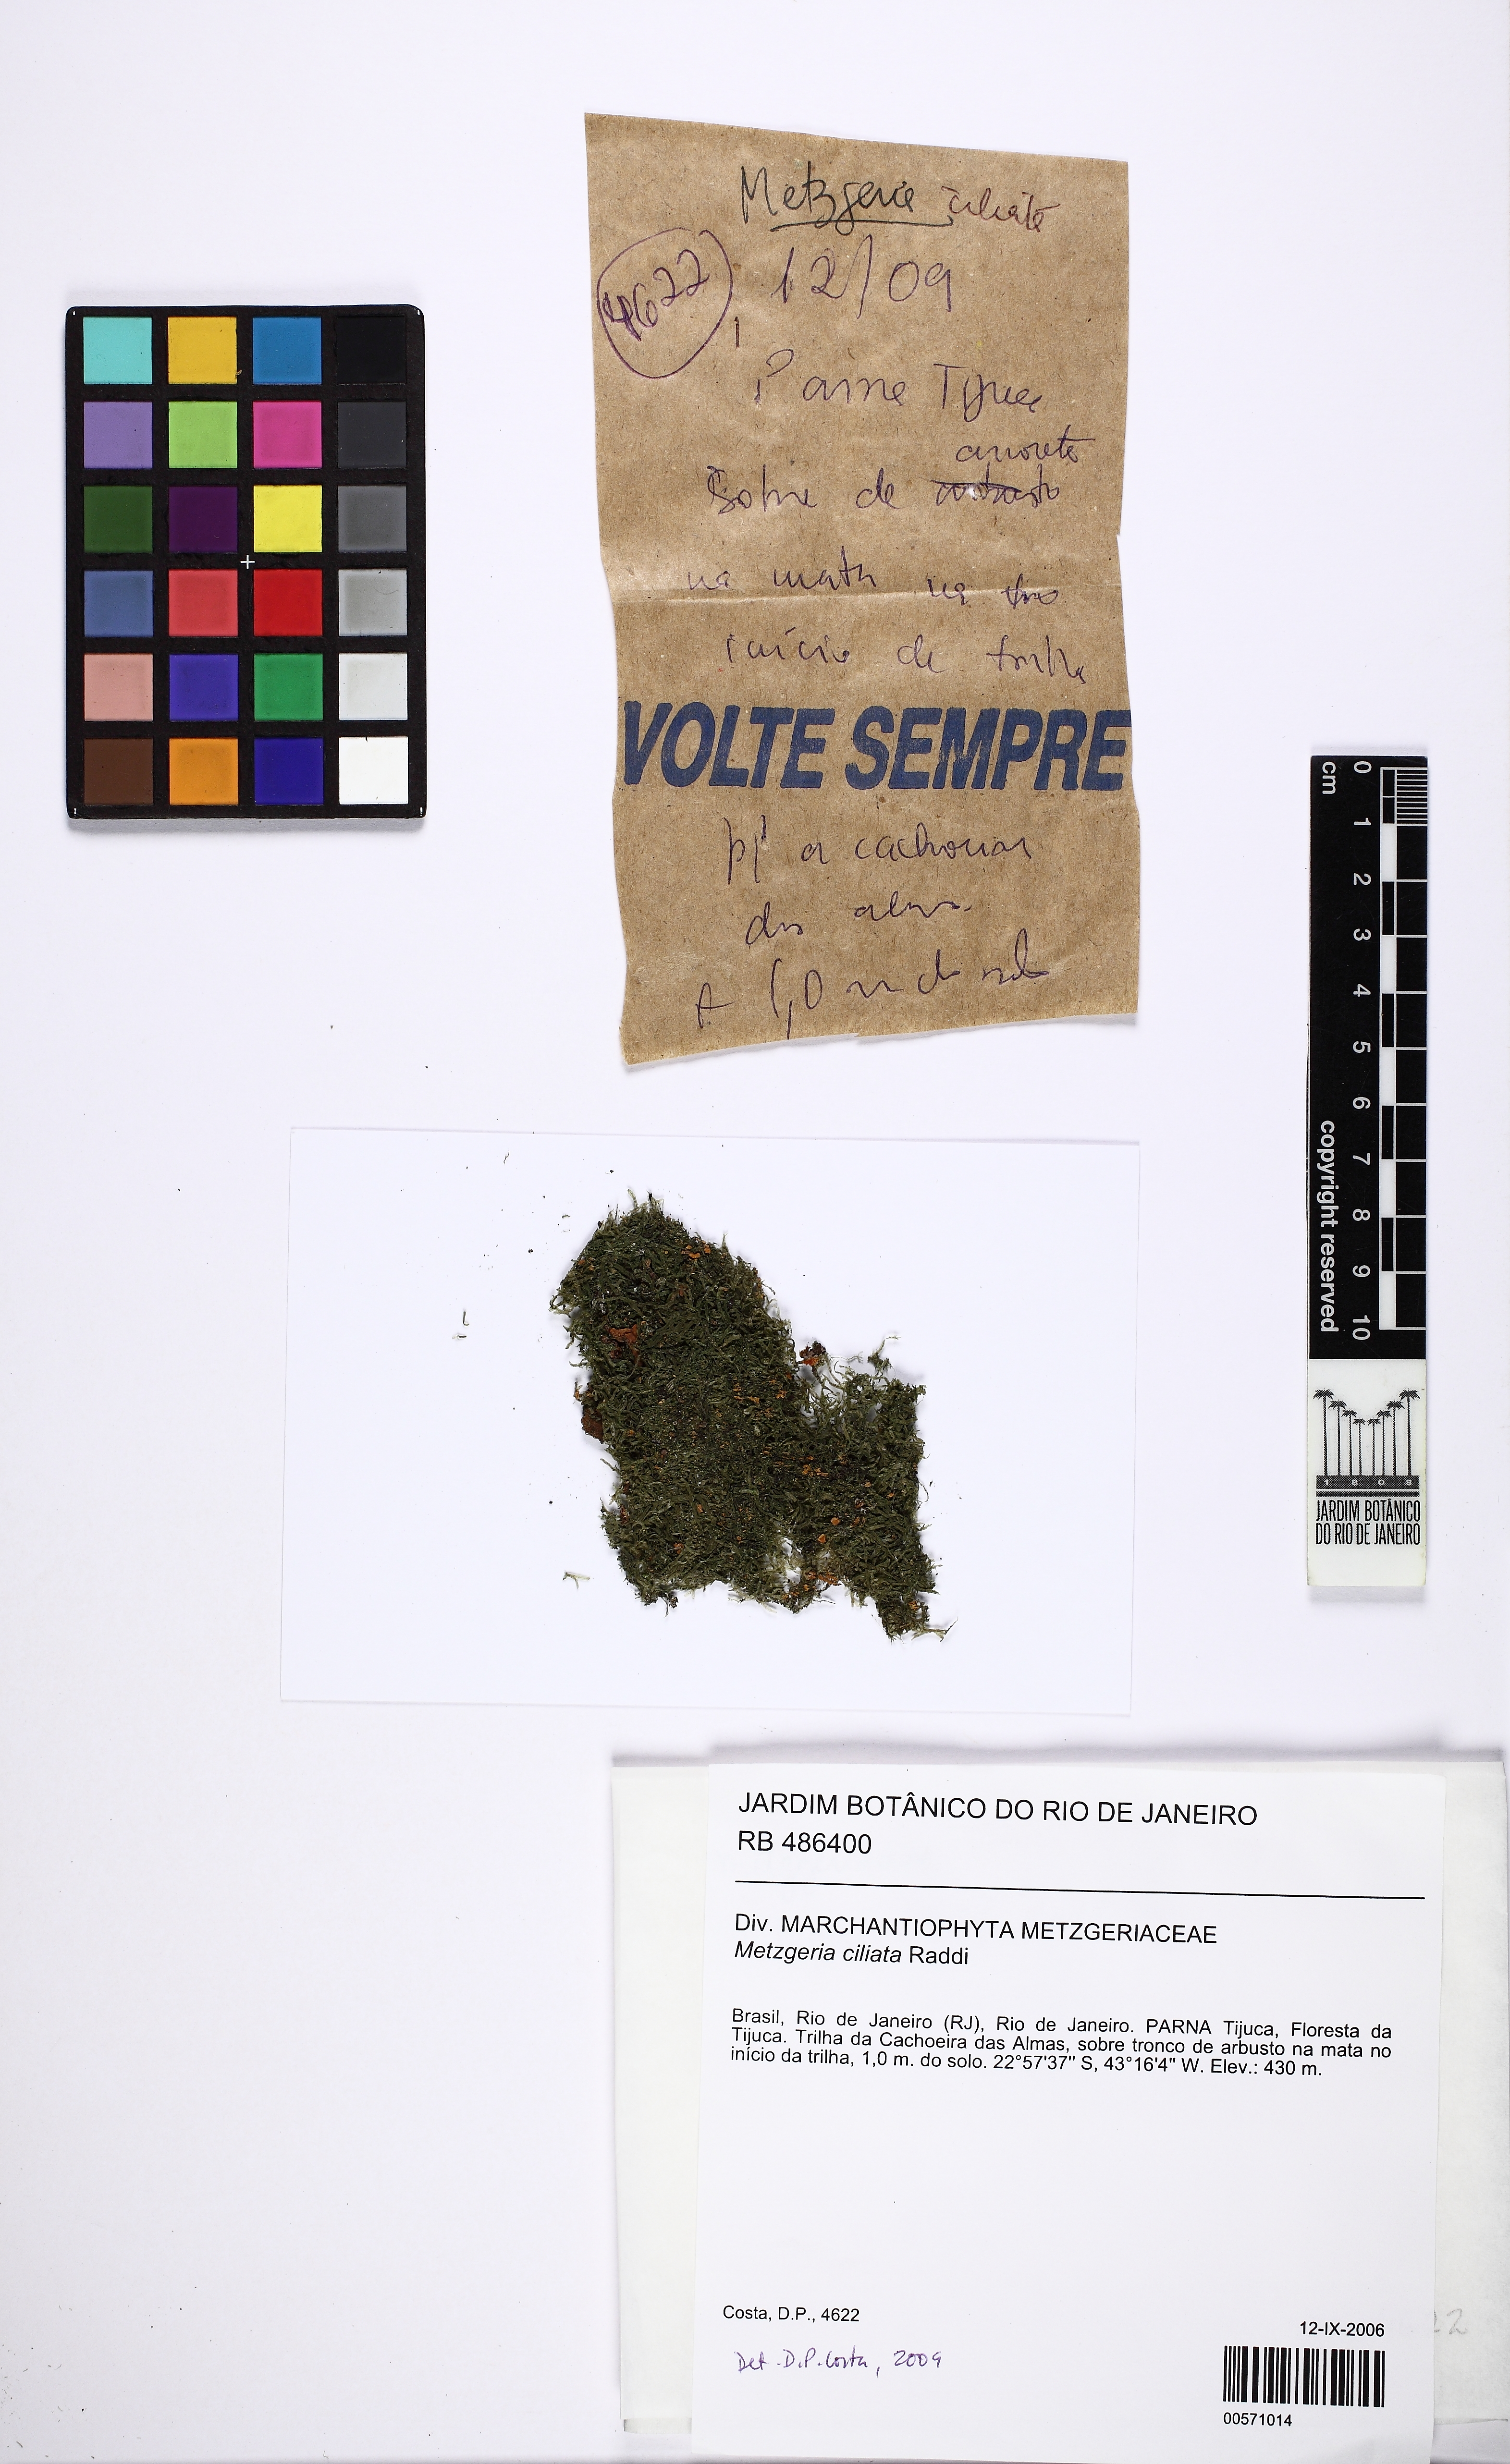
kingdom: Plantae
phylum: Marchantiophyta
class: Jungermanniopsida
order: Metzgeriales
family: Metzgeriaceae
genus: Metzgeria
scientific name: Metzgeria ciliata
